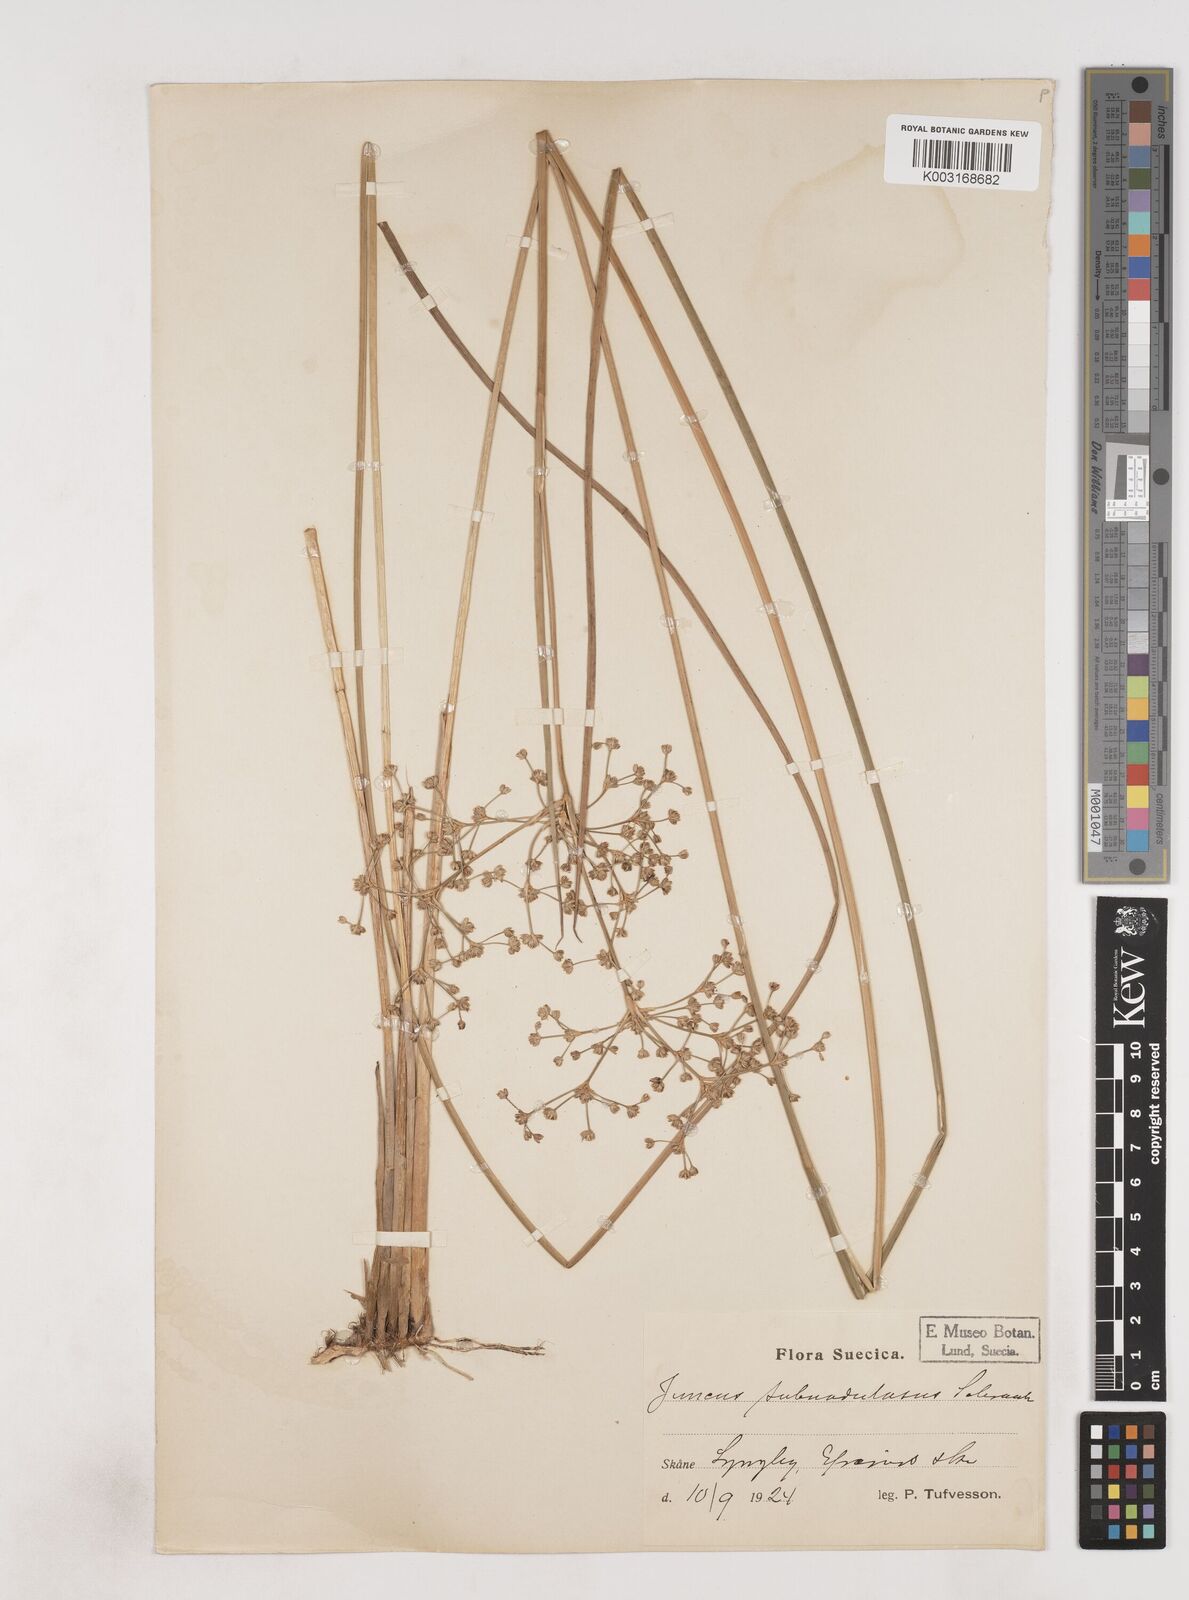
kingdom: Plantae
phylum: Tracheophyta
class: Liliopsida
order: Poales
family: Juncaceae
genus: Juncus
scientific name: Juncus subnodulosus
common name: Blunt-flowered rush
